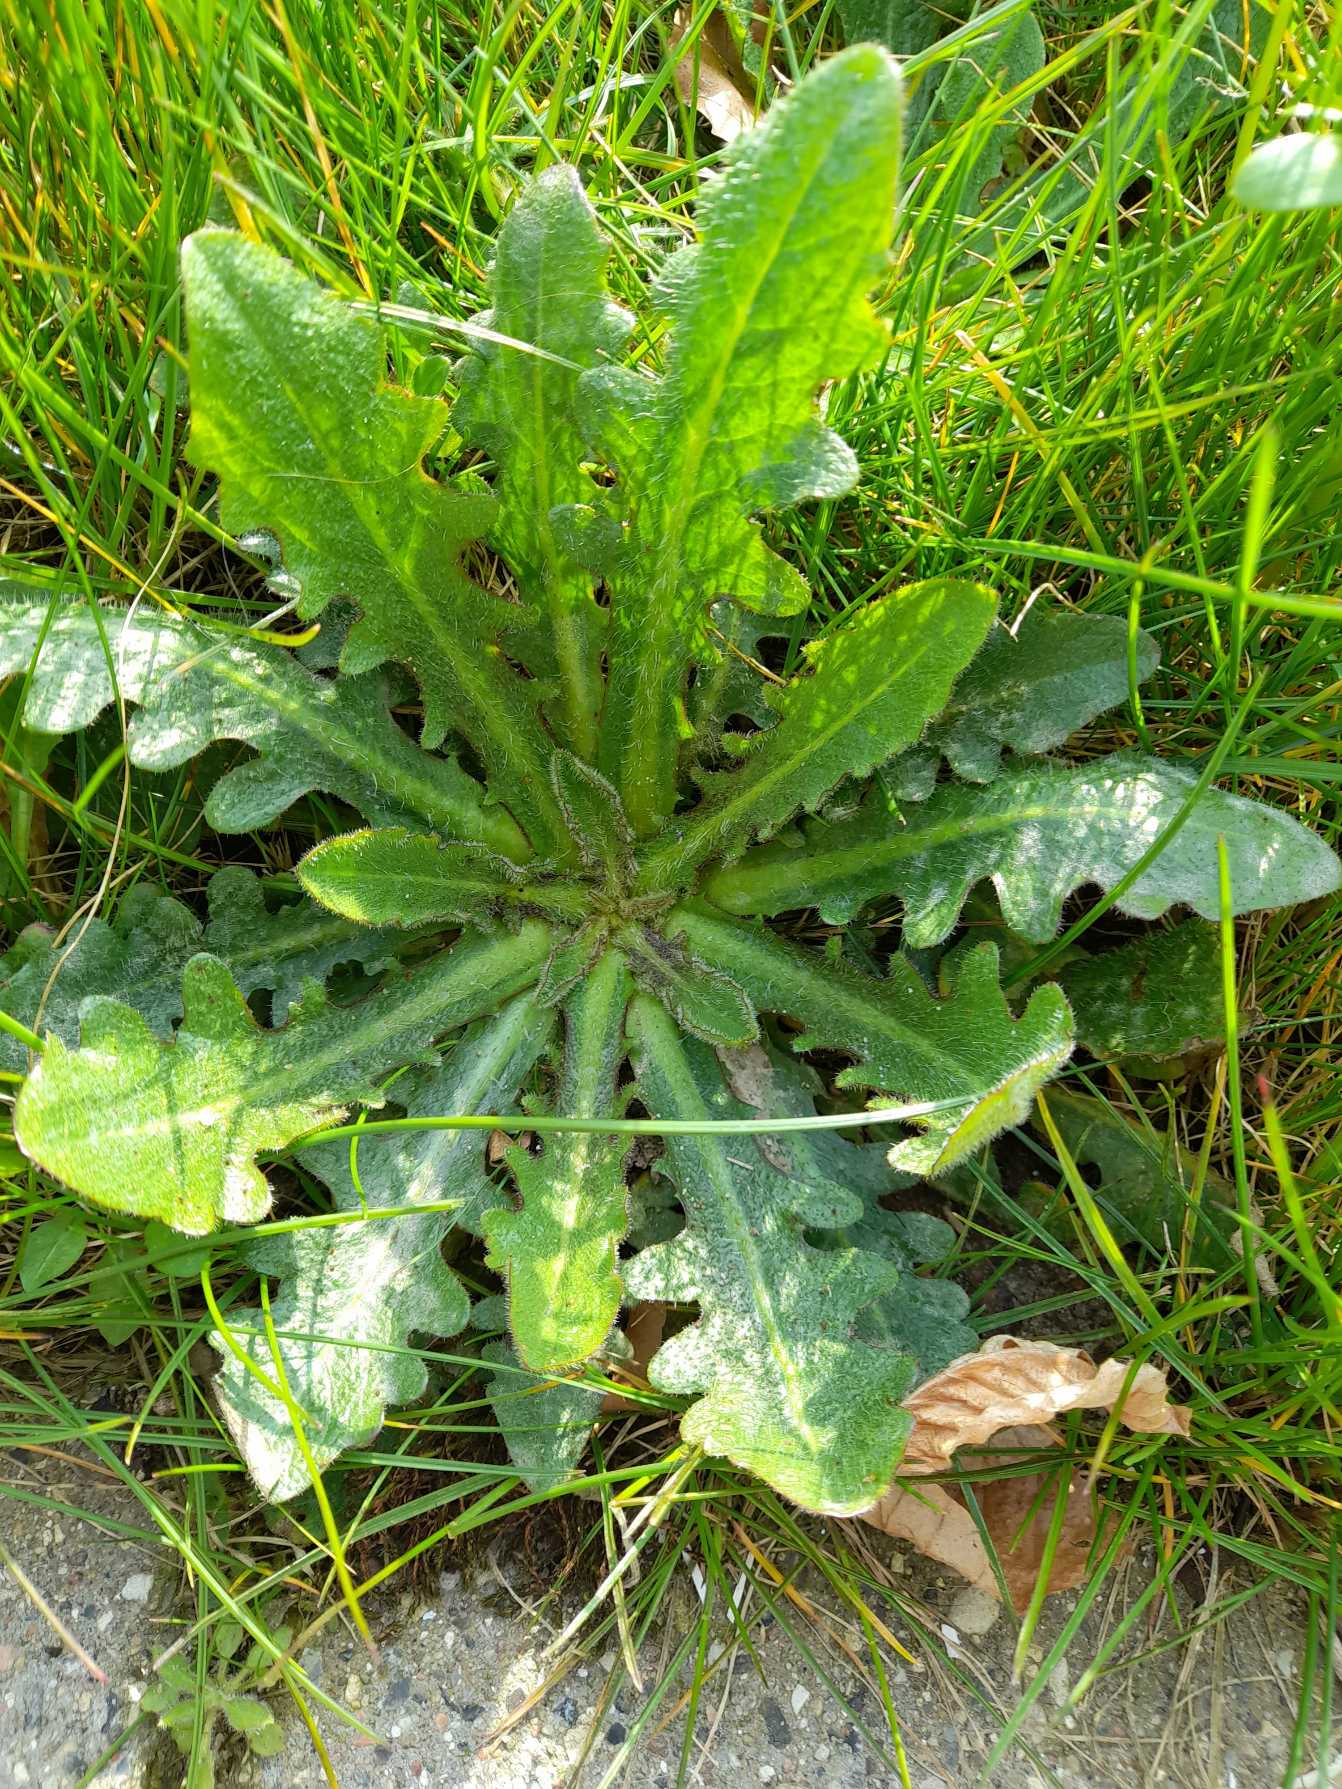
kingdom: Plantae
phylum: Tracheophyta
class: Magnoliopsida
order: Asterales
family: Asteraceae
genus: Hypochaeris
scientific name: Hypochaeris radicata
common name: Almindelig kongepen
